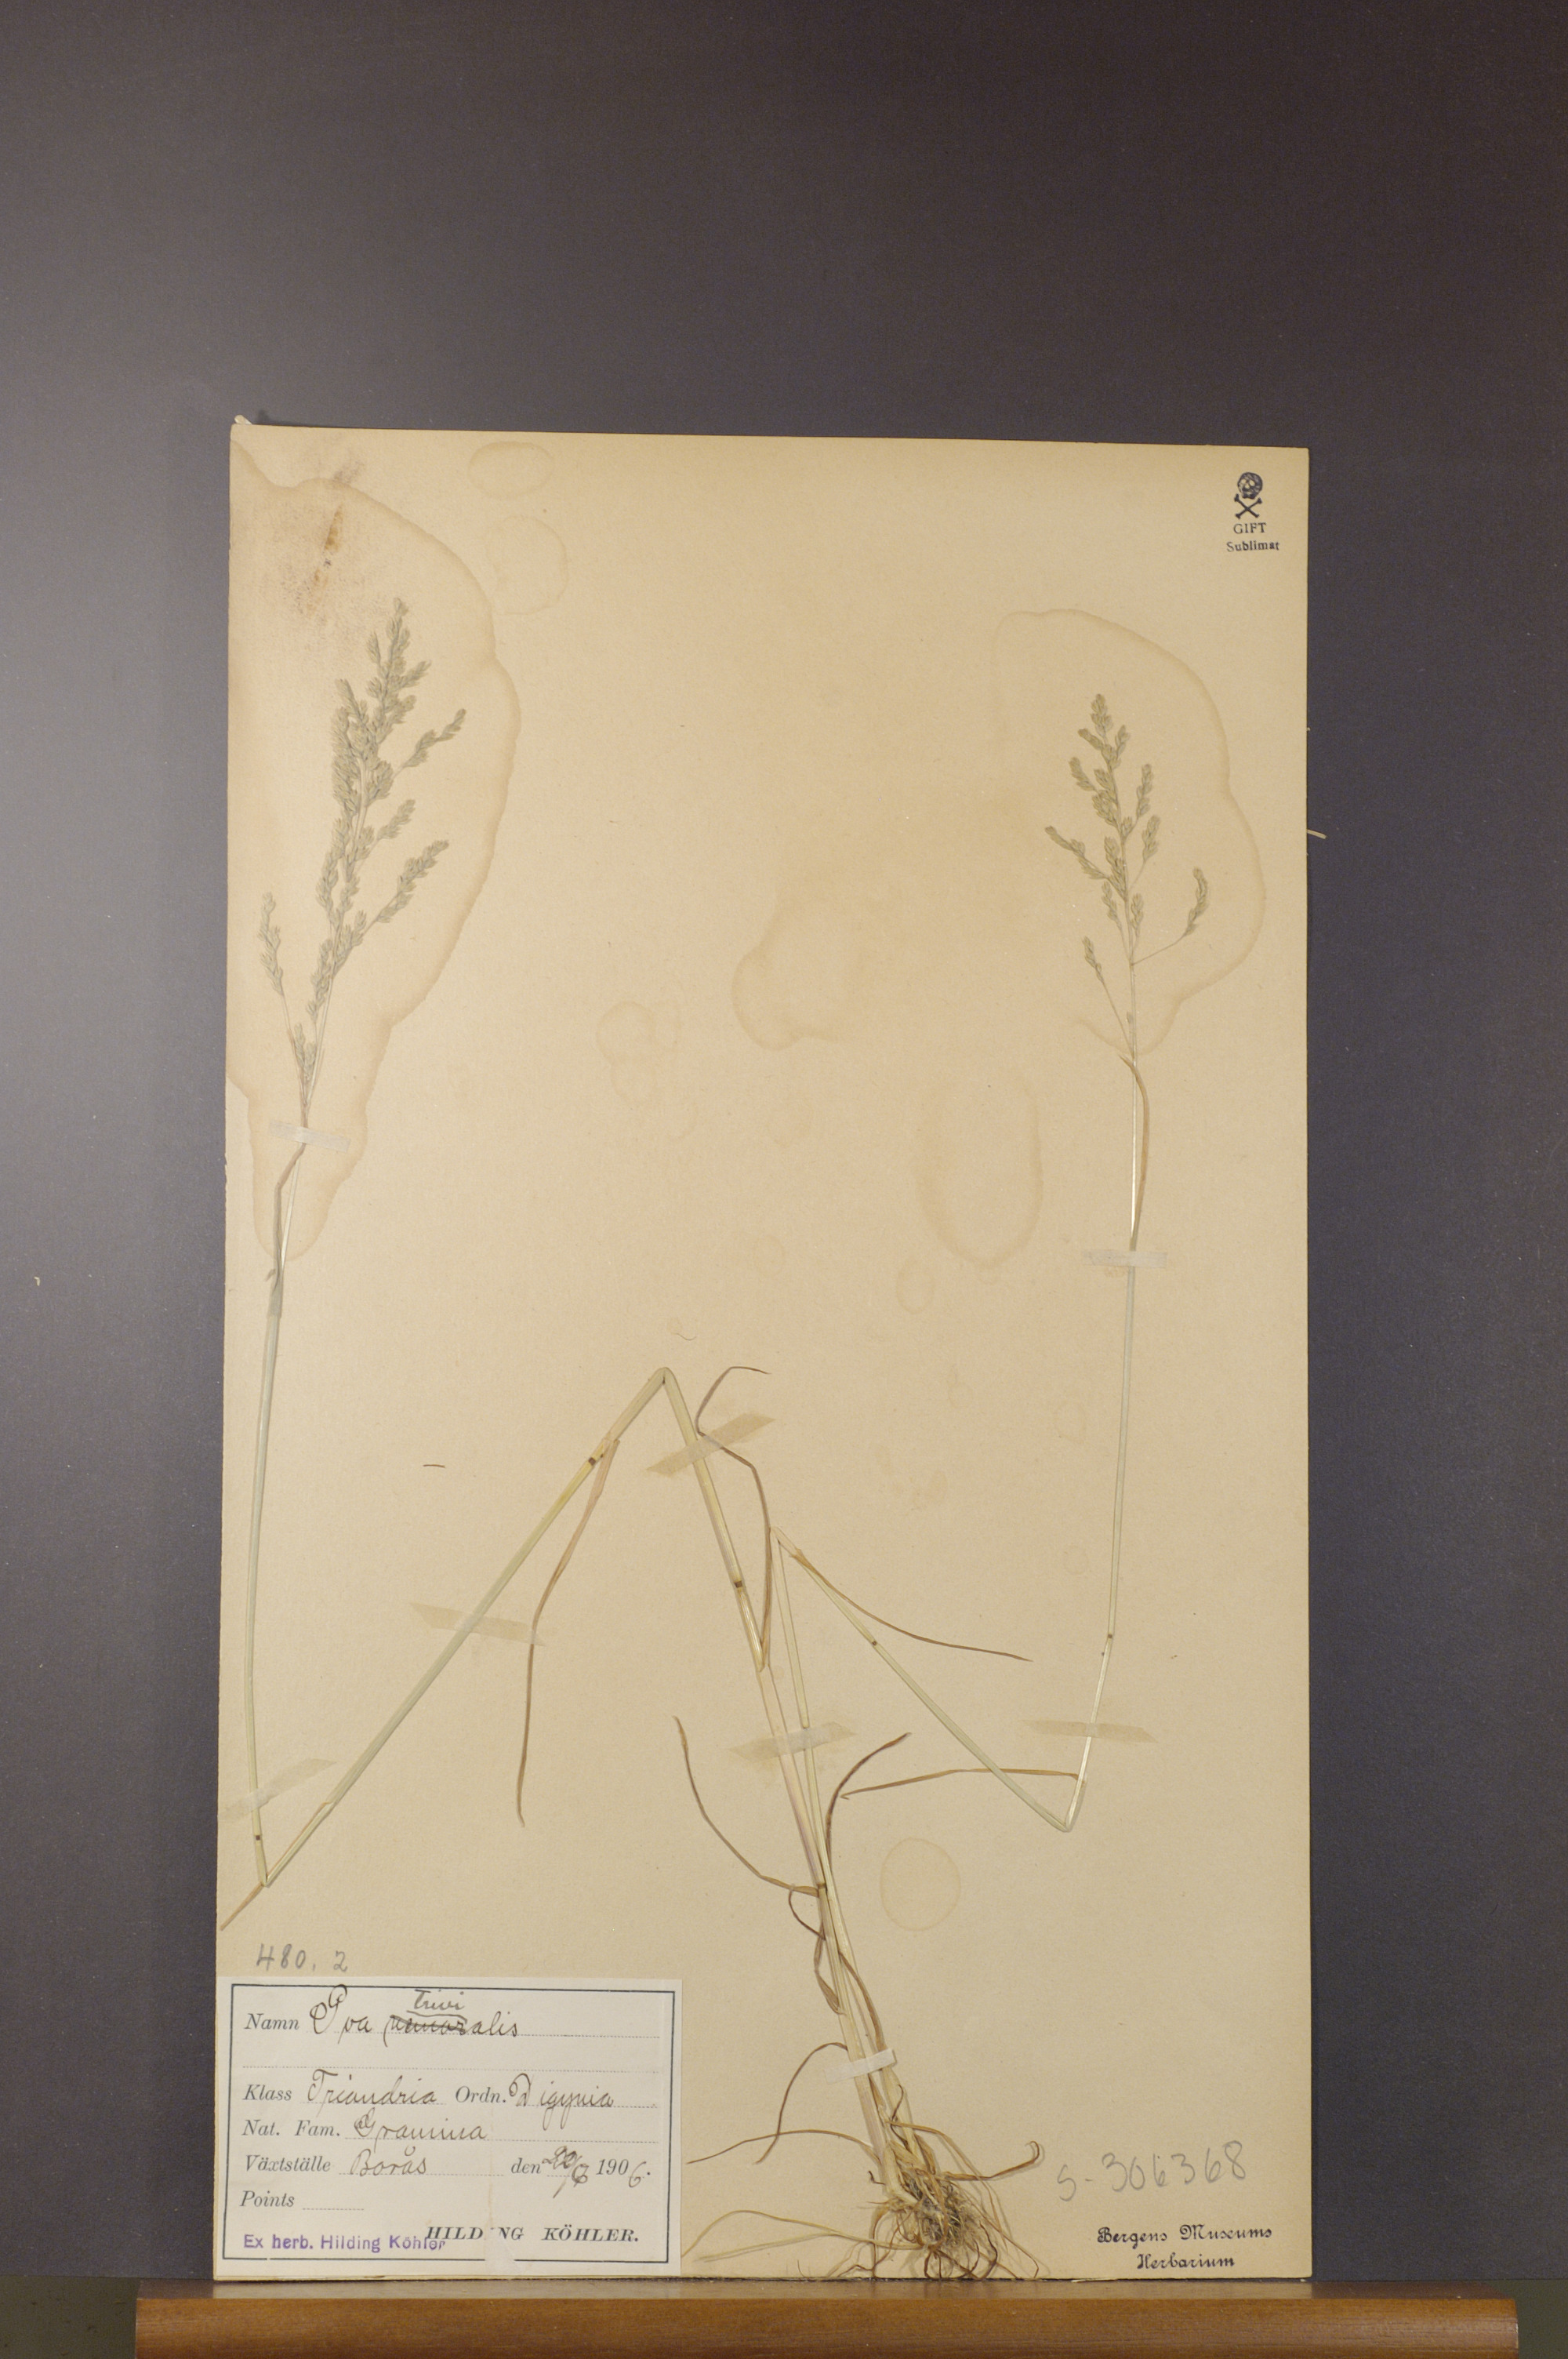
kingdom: Plantae
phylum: Tracheophyta
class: Liliopsida
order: Poales
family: Poaceae
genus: Poa
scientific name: Poa trivialis
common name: Rough bluegrass
